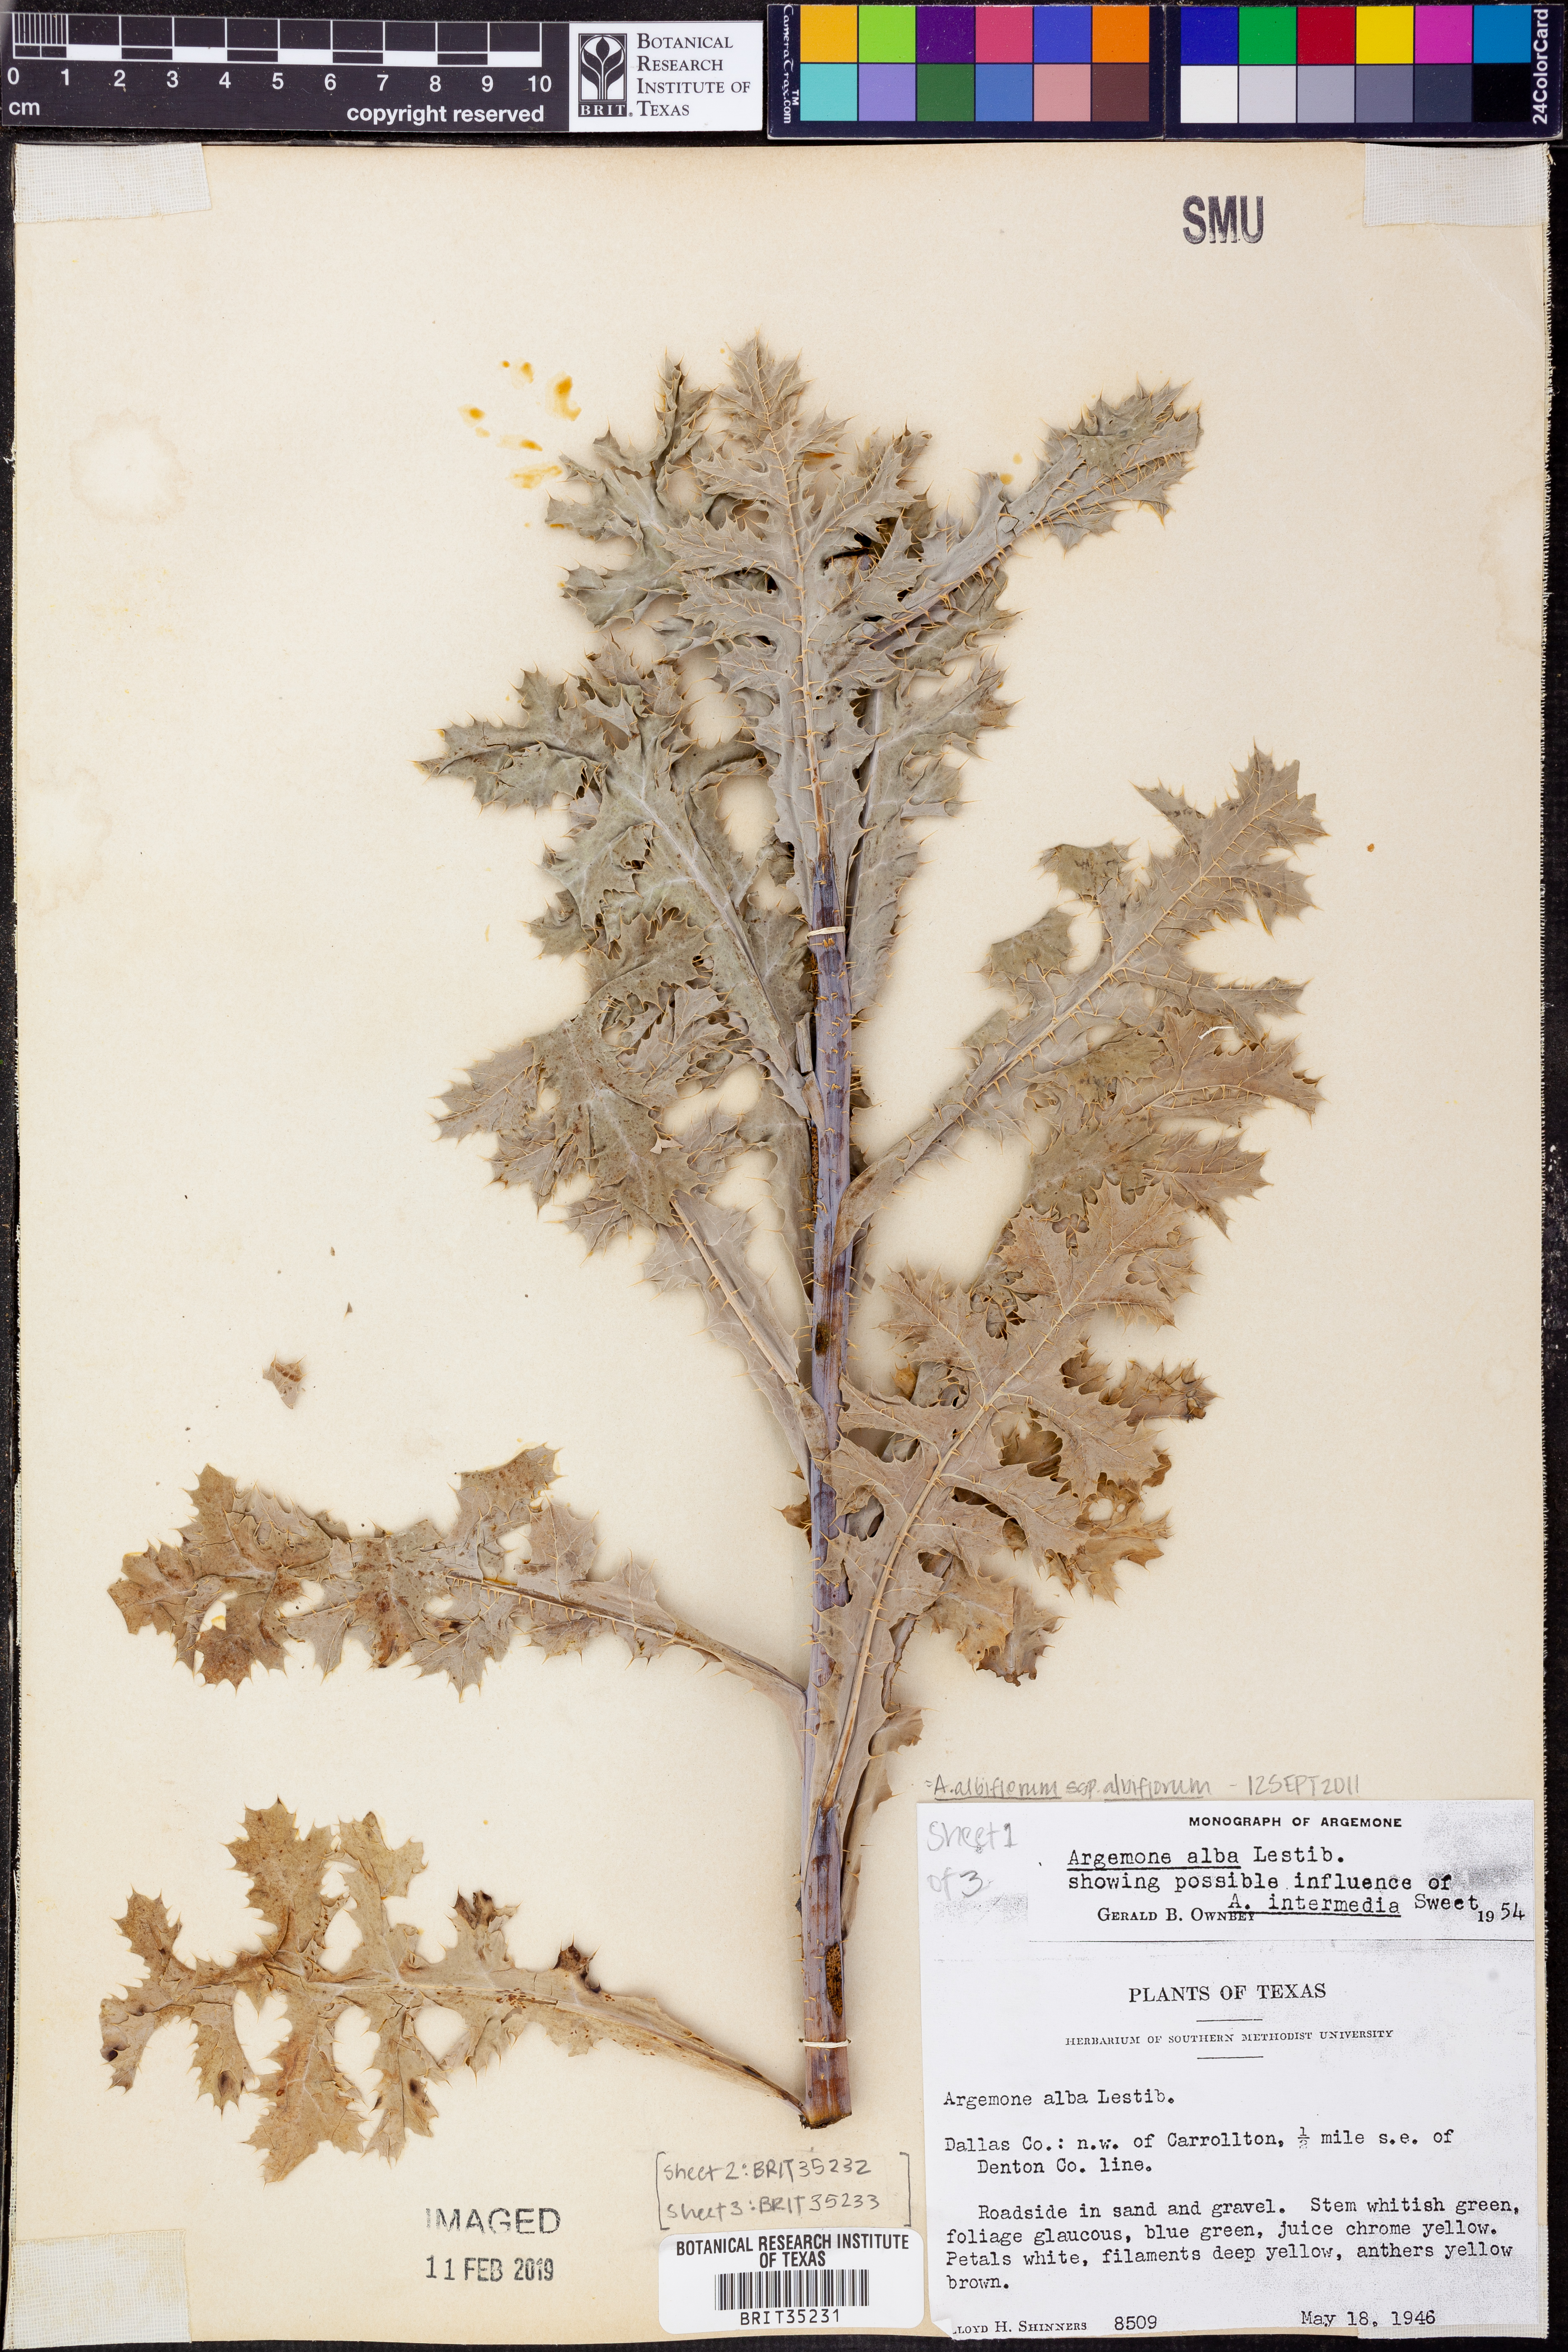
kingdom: Plantae
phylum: Tracheophyta
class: Magnoliopsida
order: Ranunculales
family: Papaveraceae
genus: Argemone
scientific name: Argemone albiflora
